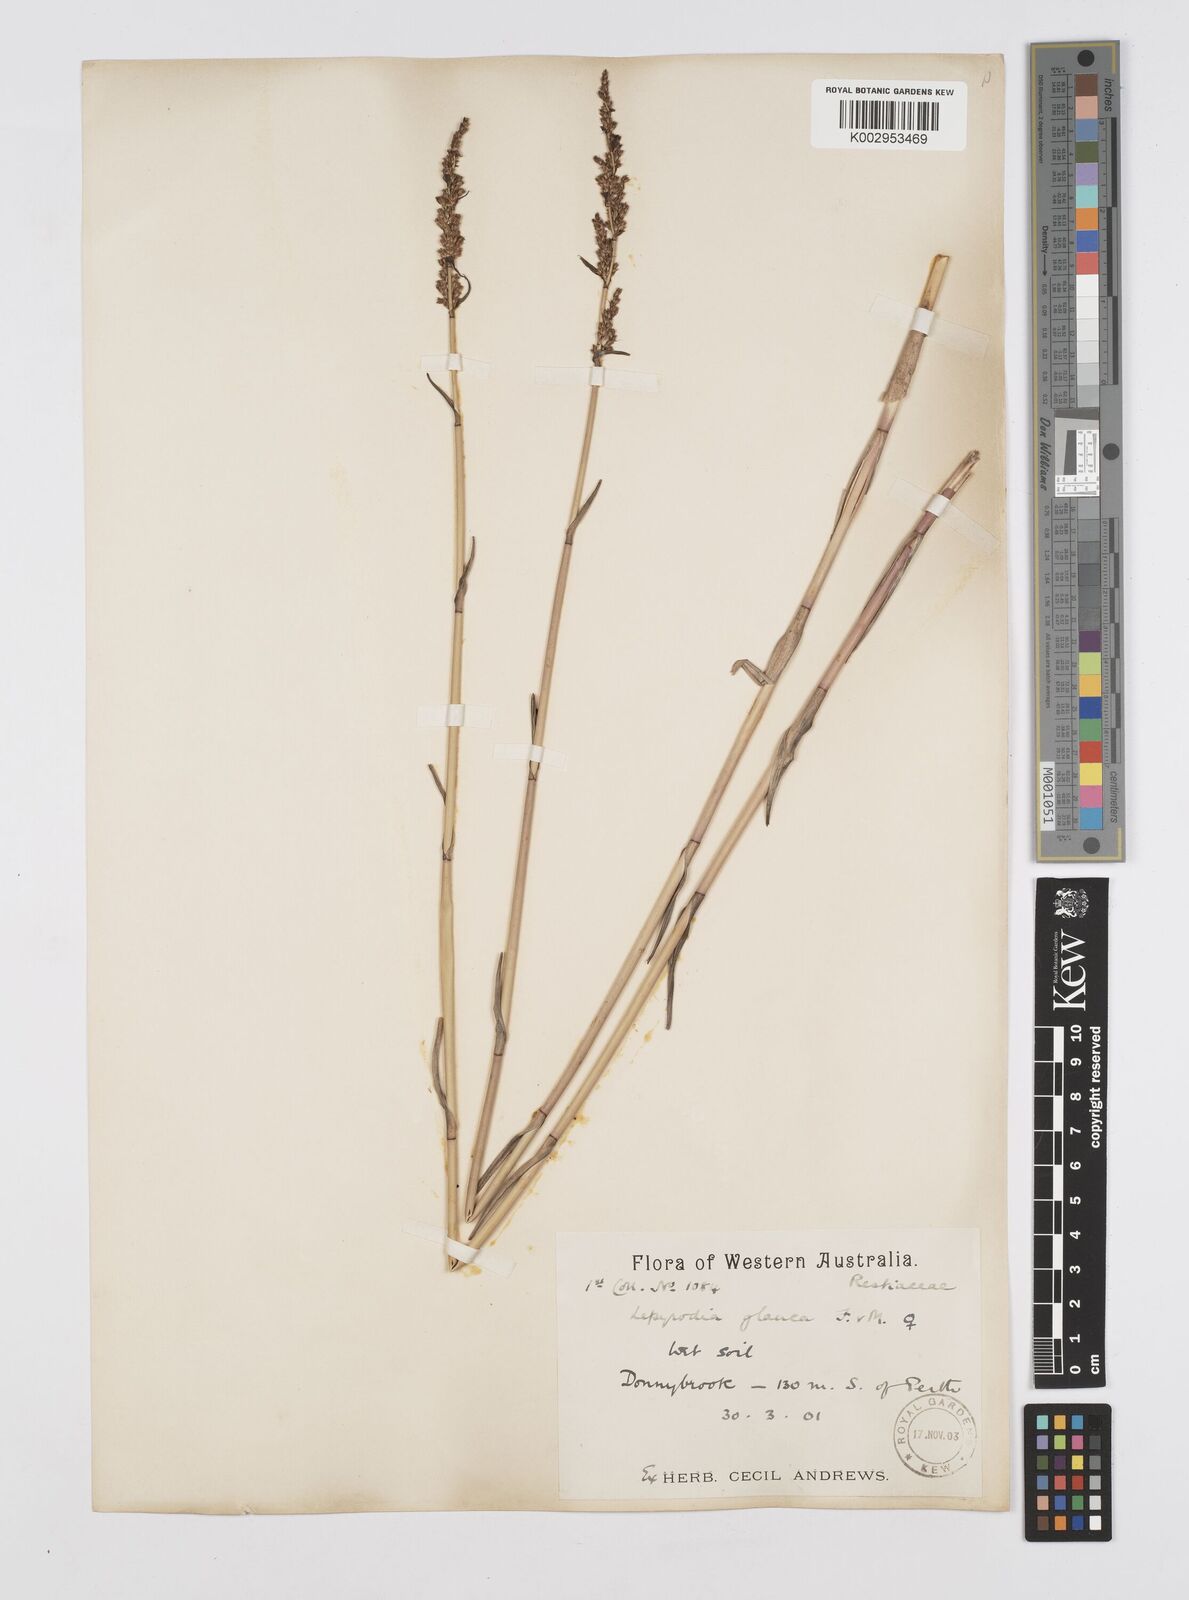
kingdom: Plantae
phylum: Tracheophyta
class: Liliopsida
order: Poales
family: Restionaceae
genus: Lepyrodia
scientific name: Lepyrodia glauca
